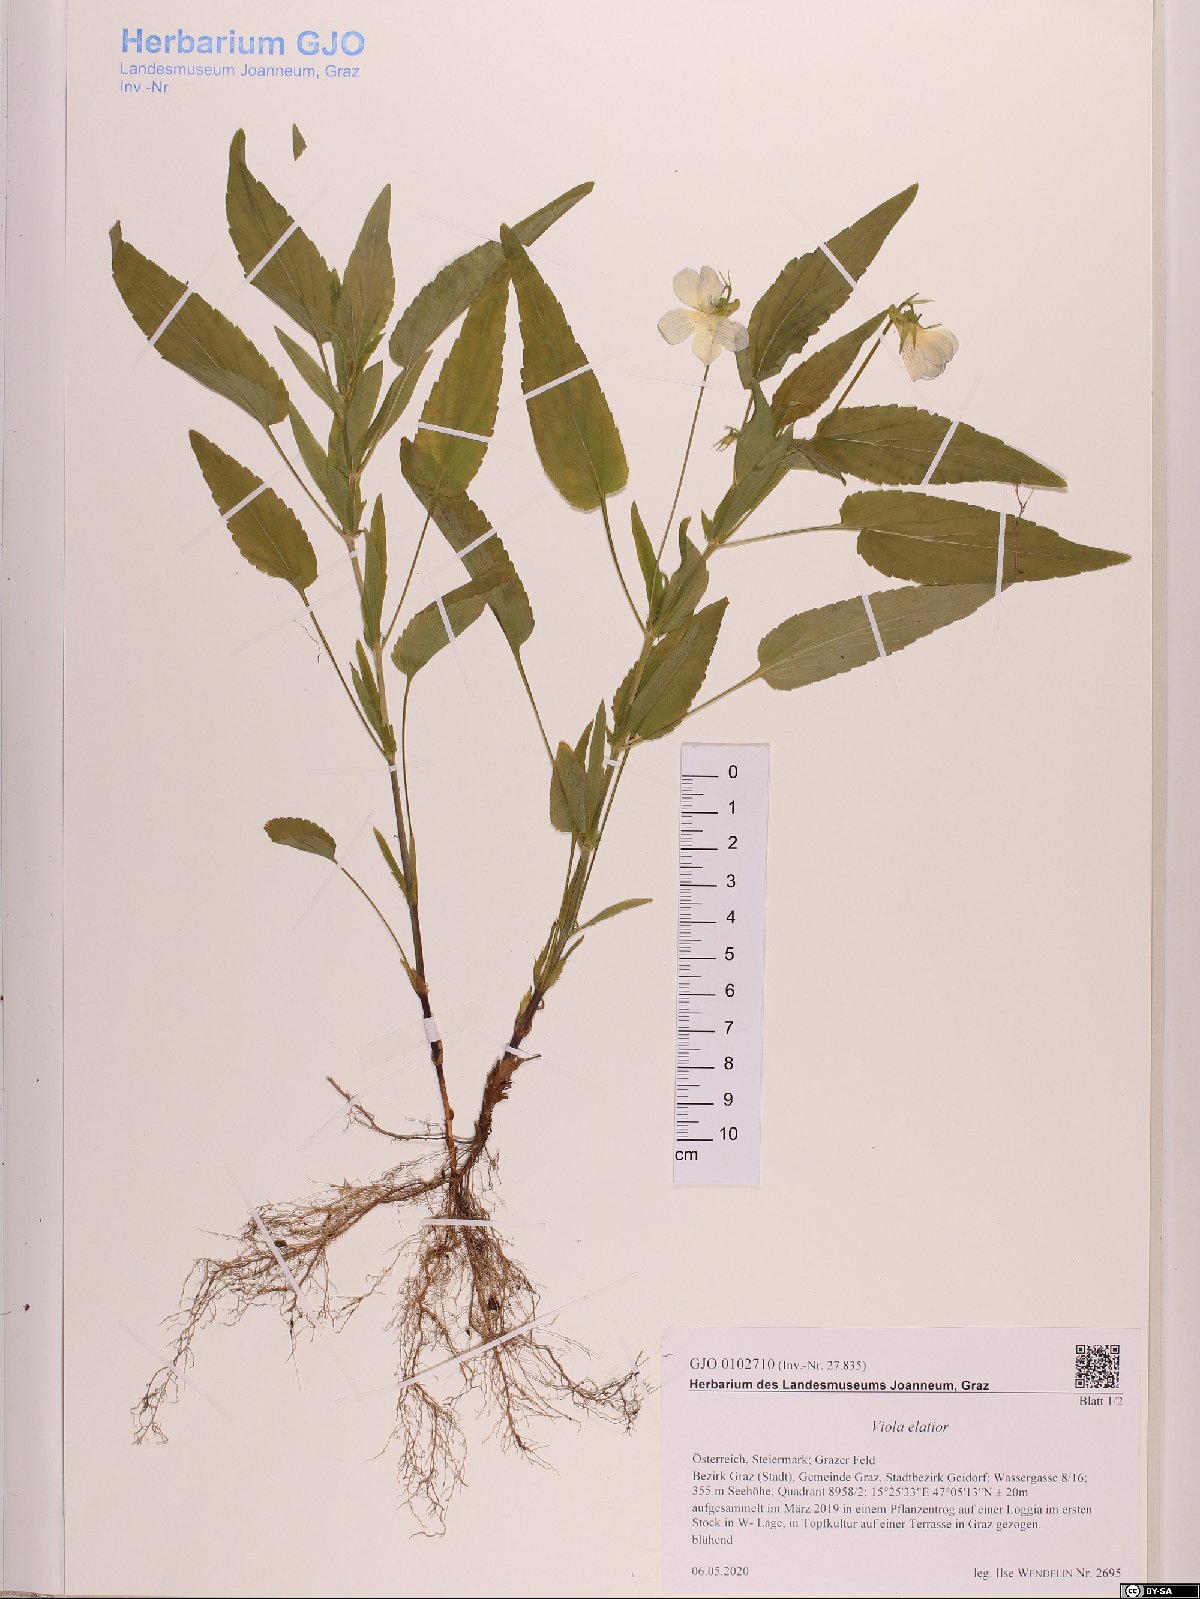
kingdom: Plantae
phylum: Tracheophyta
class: Magnoliopsida
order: Malpighiales
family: Violaceae
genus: Viola
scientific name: Viola elatior
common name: Tall violet
